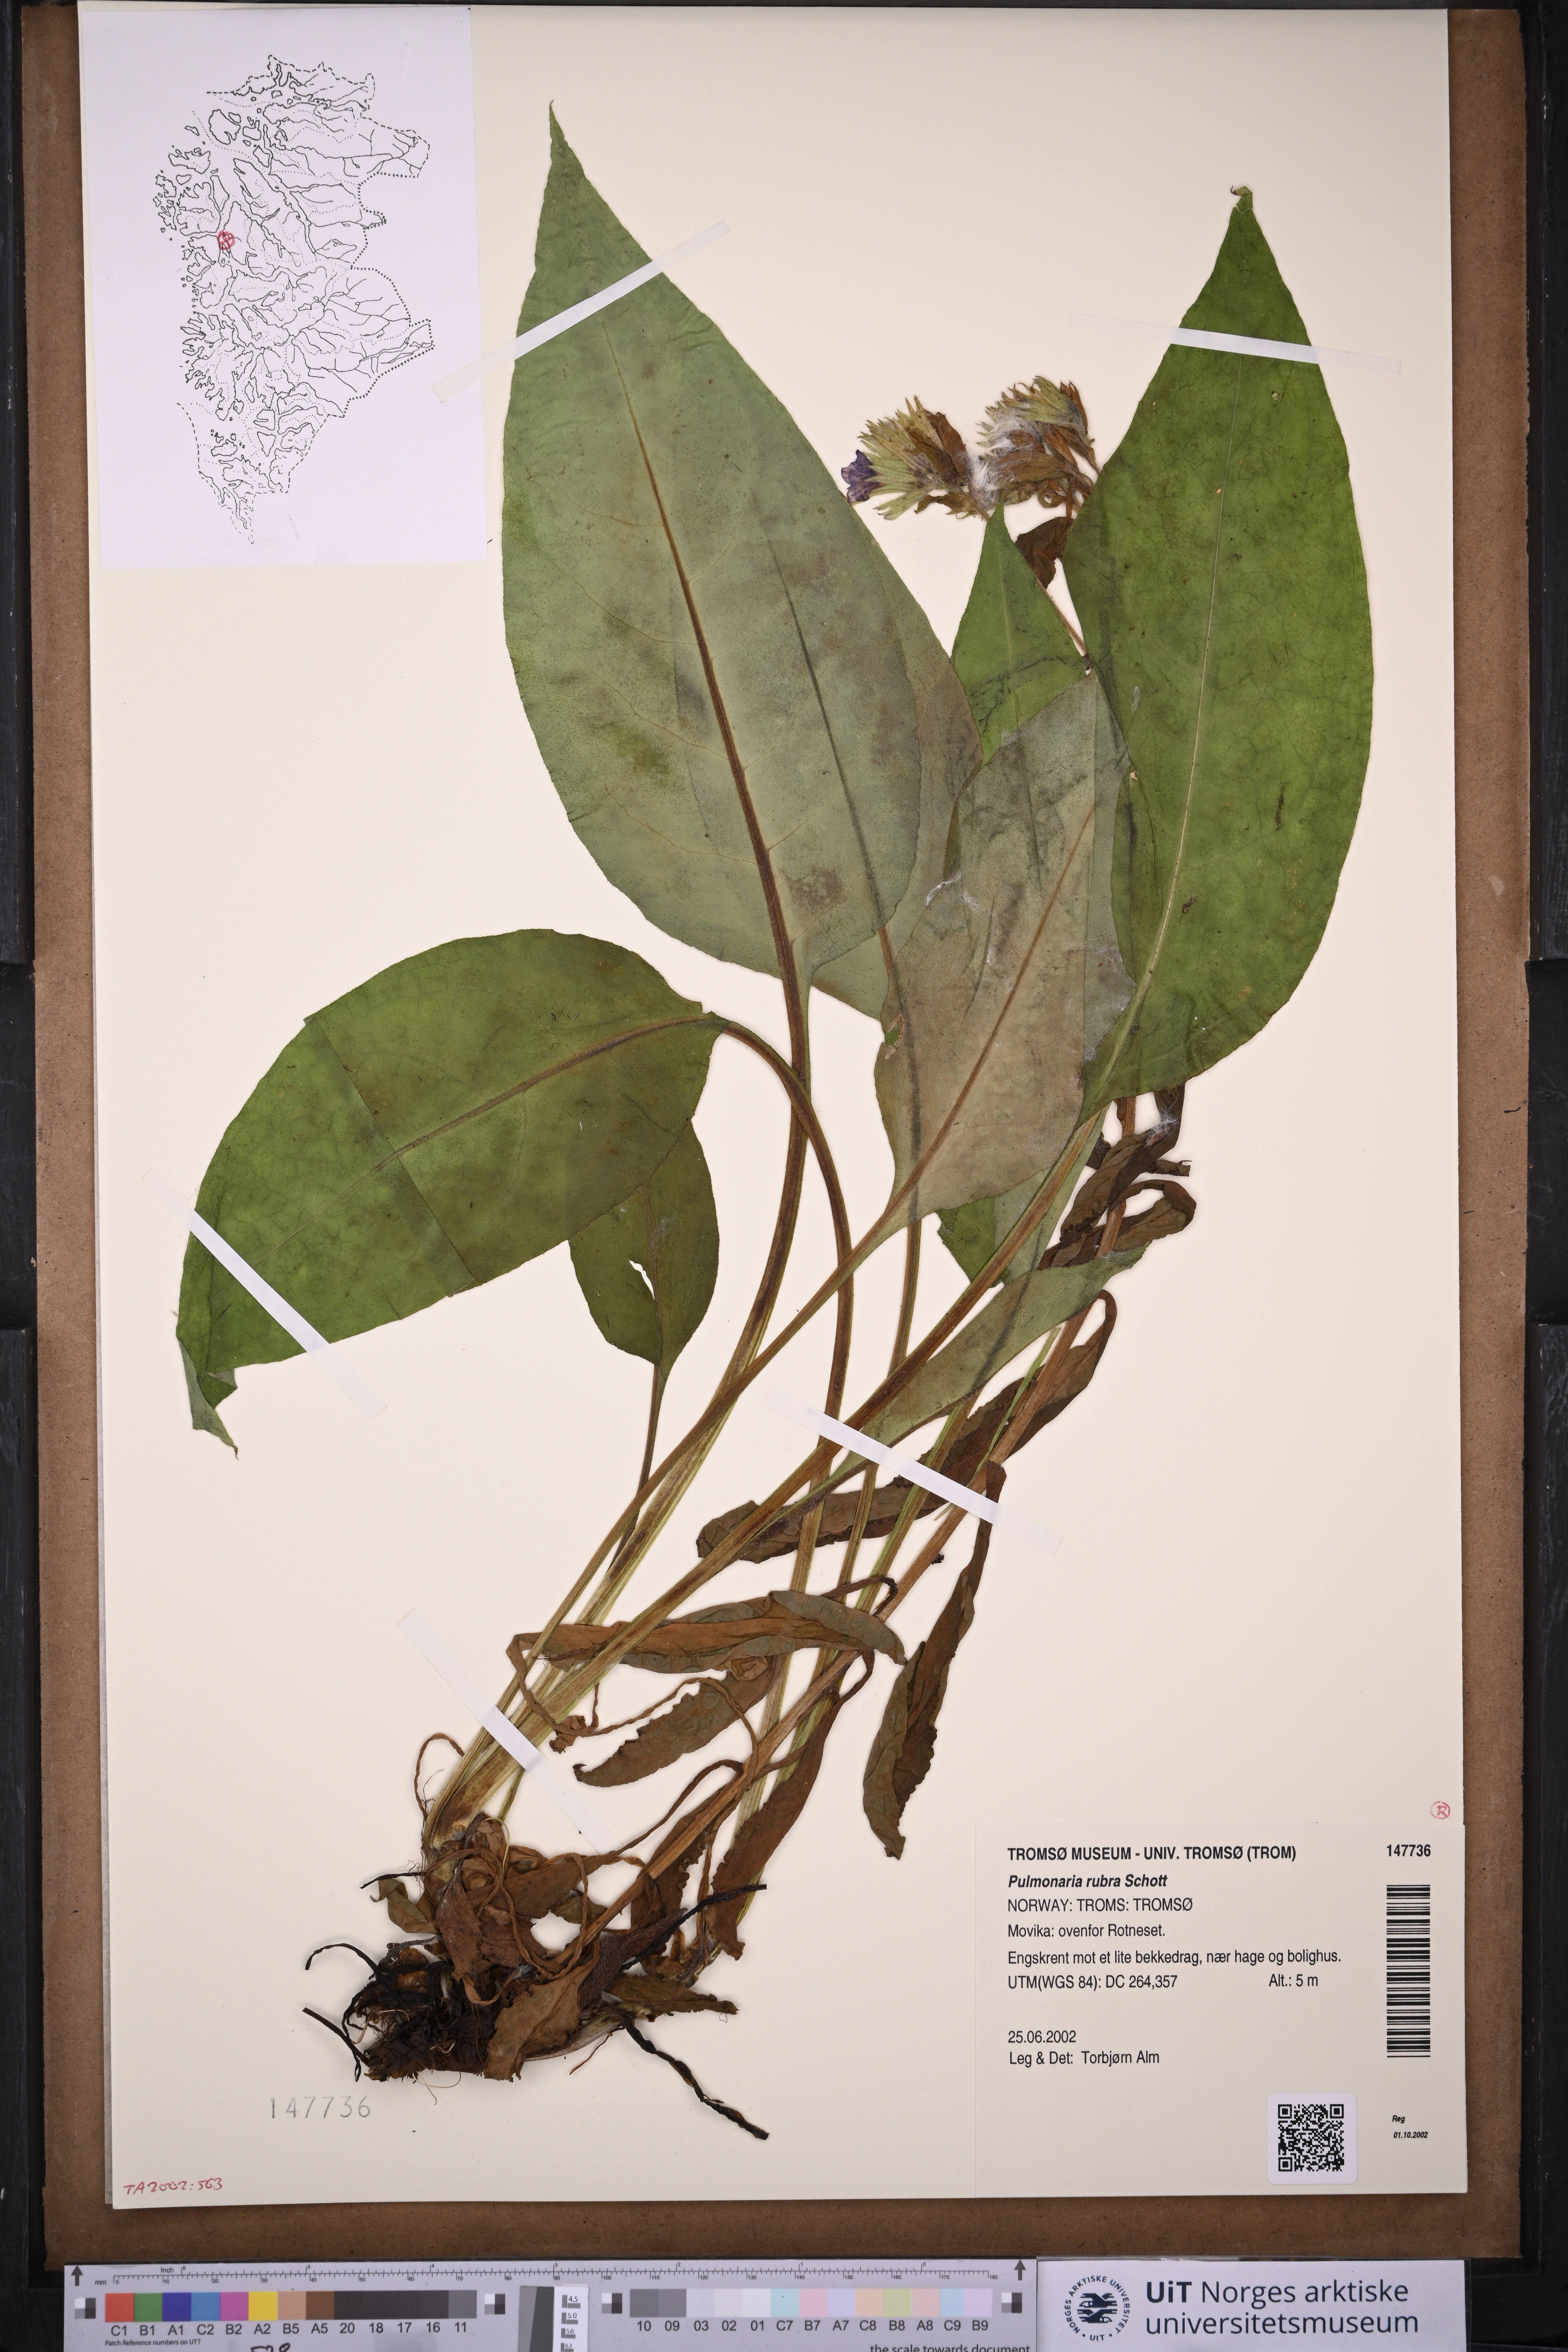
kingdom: Plantae
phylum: Tracheophyta
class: Magnoliopsida
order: Boraginales
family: Boraginaceae
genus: Pulmonaria
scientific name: Pulmonaria rubra
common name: Red lungwort
